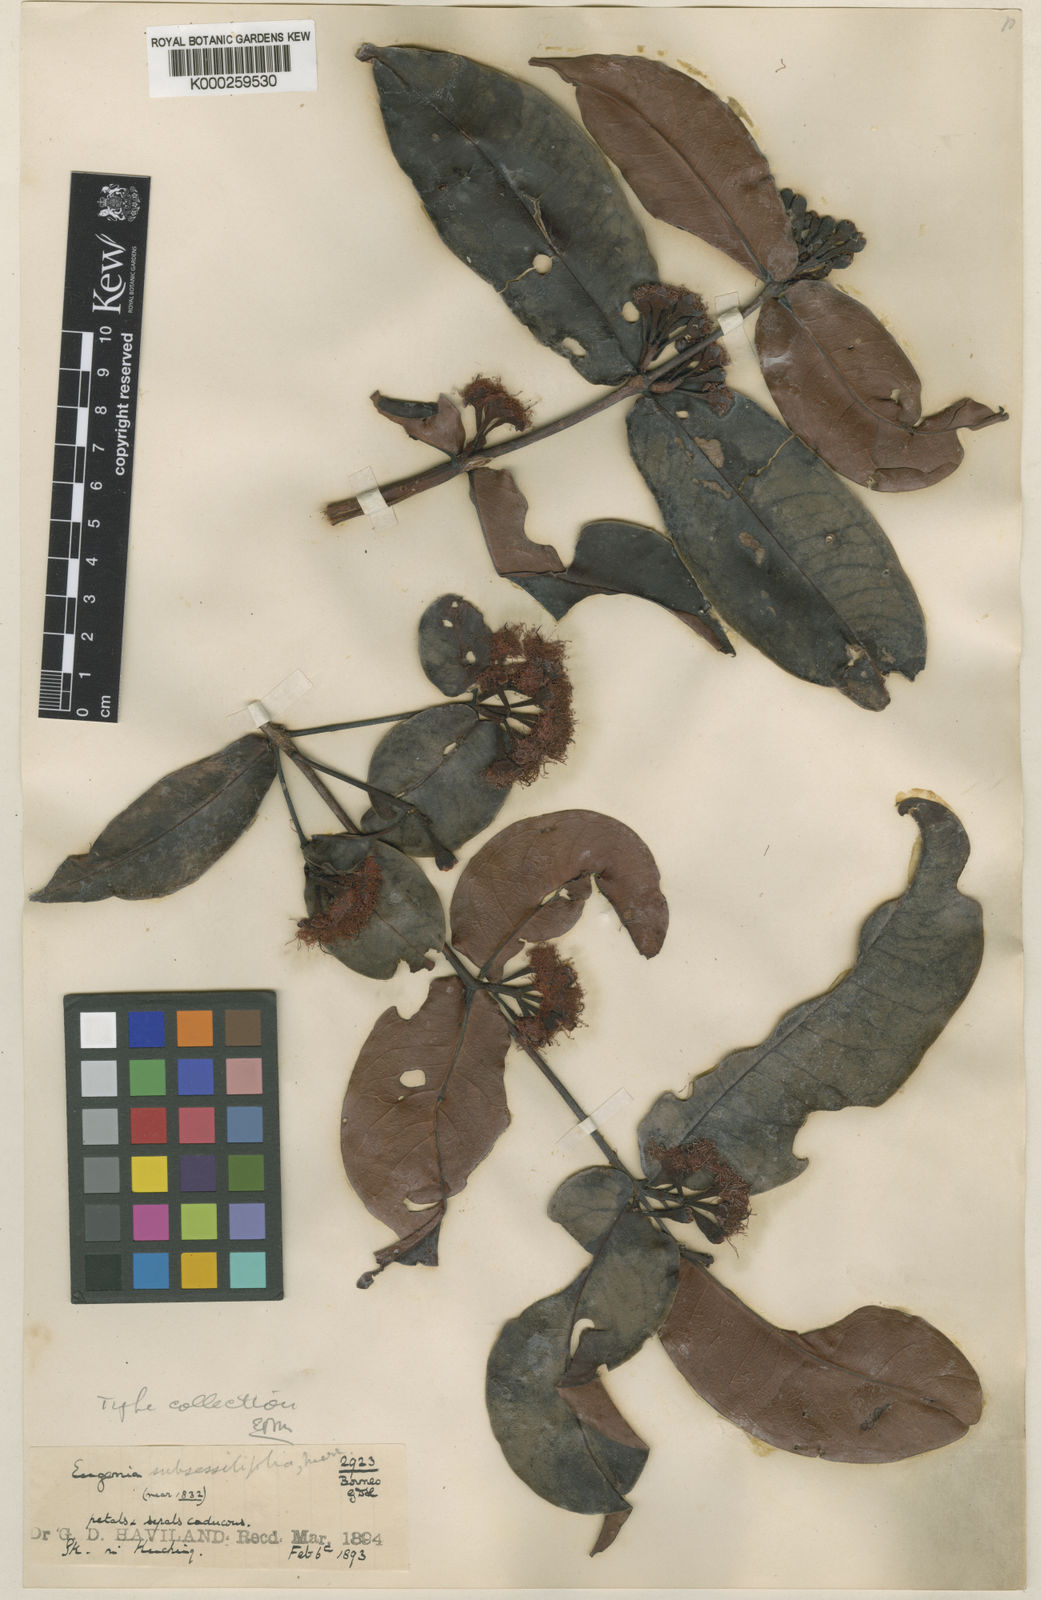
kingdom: Plantae
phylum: Tracheophyta
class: Magnoliopsida
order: Myrtales
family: Myrtaceae
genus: Syzygium
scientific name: Syzygium subsessilifolium
